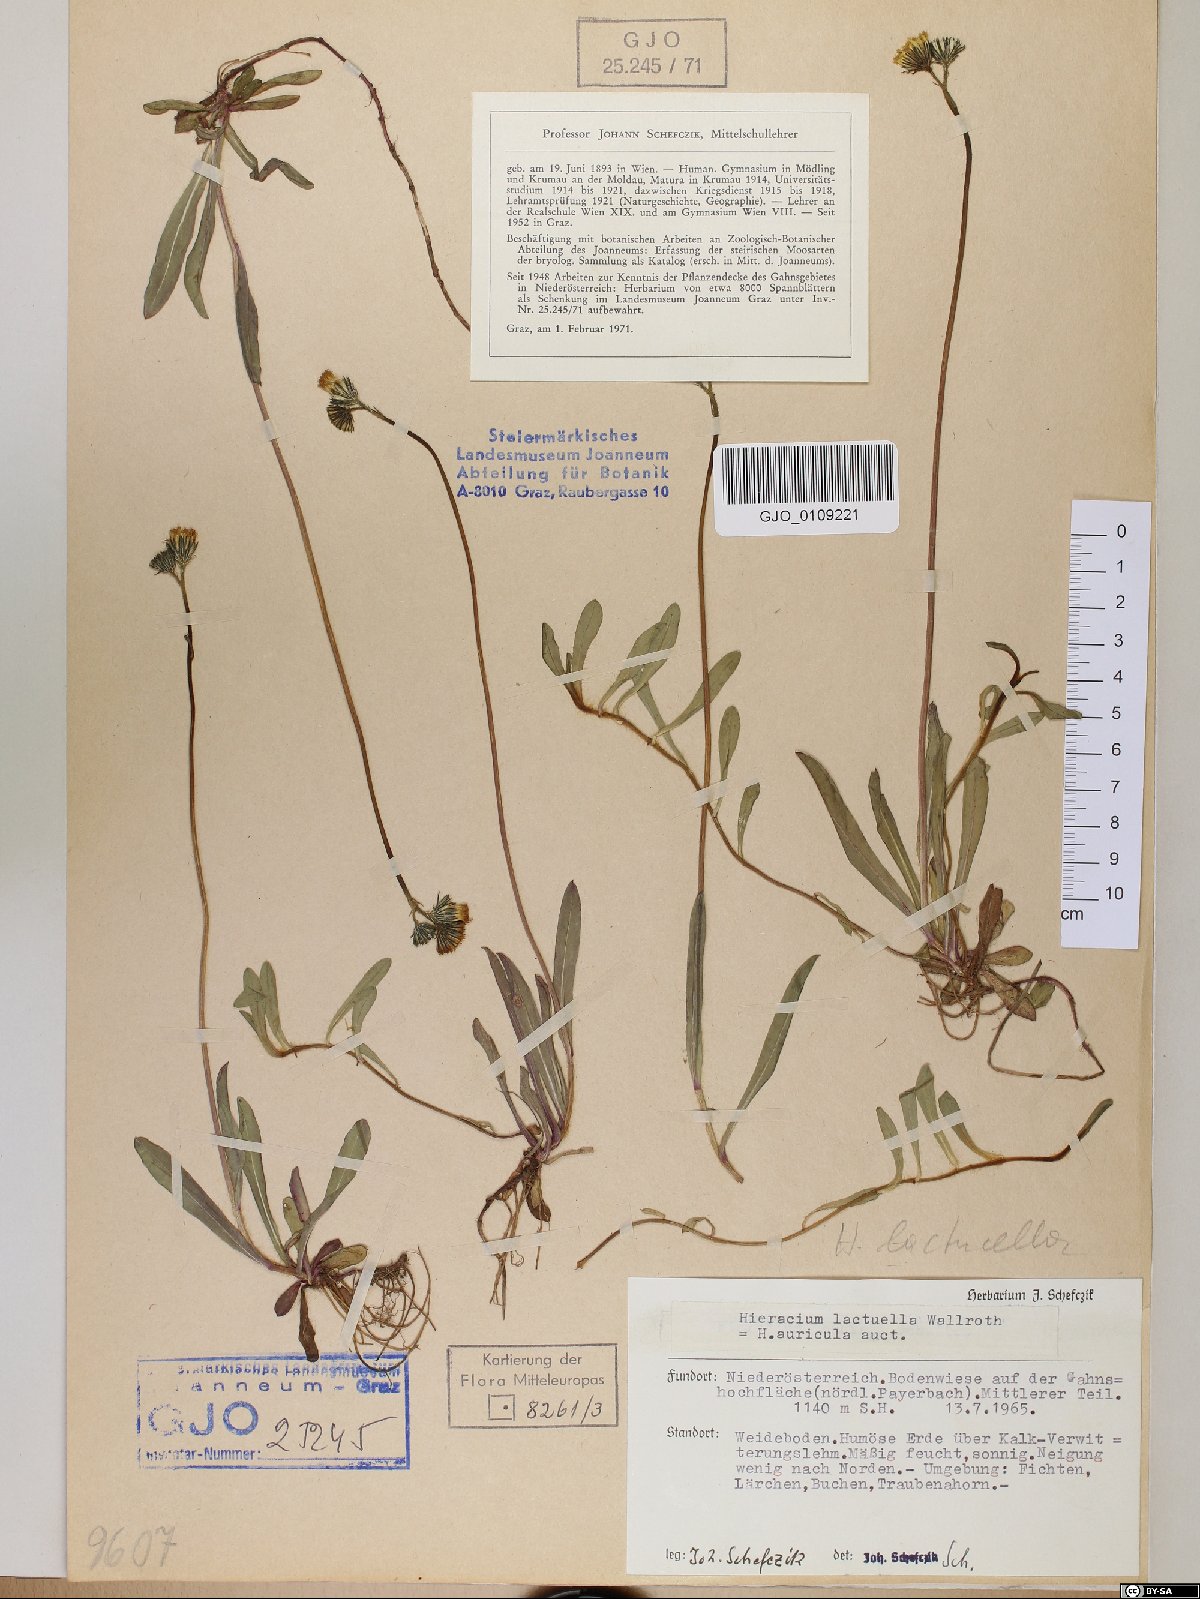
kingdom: Plantae
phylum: Tracheophyta
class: Magnoliopsida
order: Asterales
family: Asteraceae
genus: Pilosella
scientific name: Pilosella lactucella
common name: Glaucous fox-and-cubs
